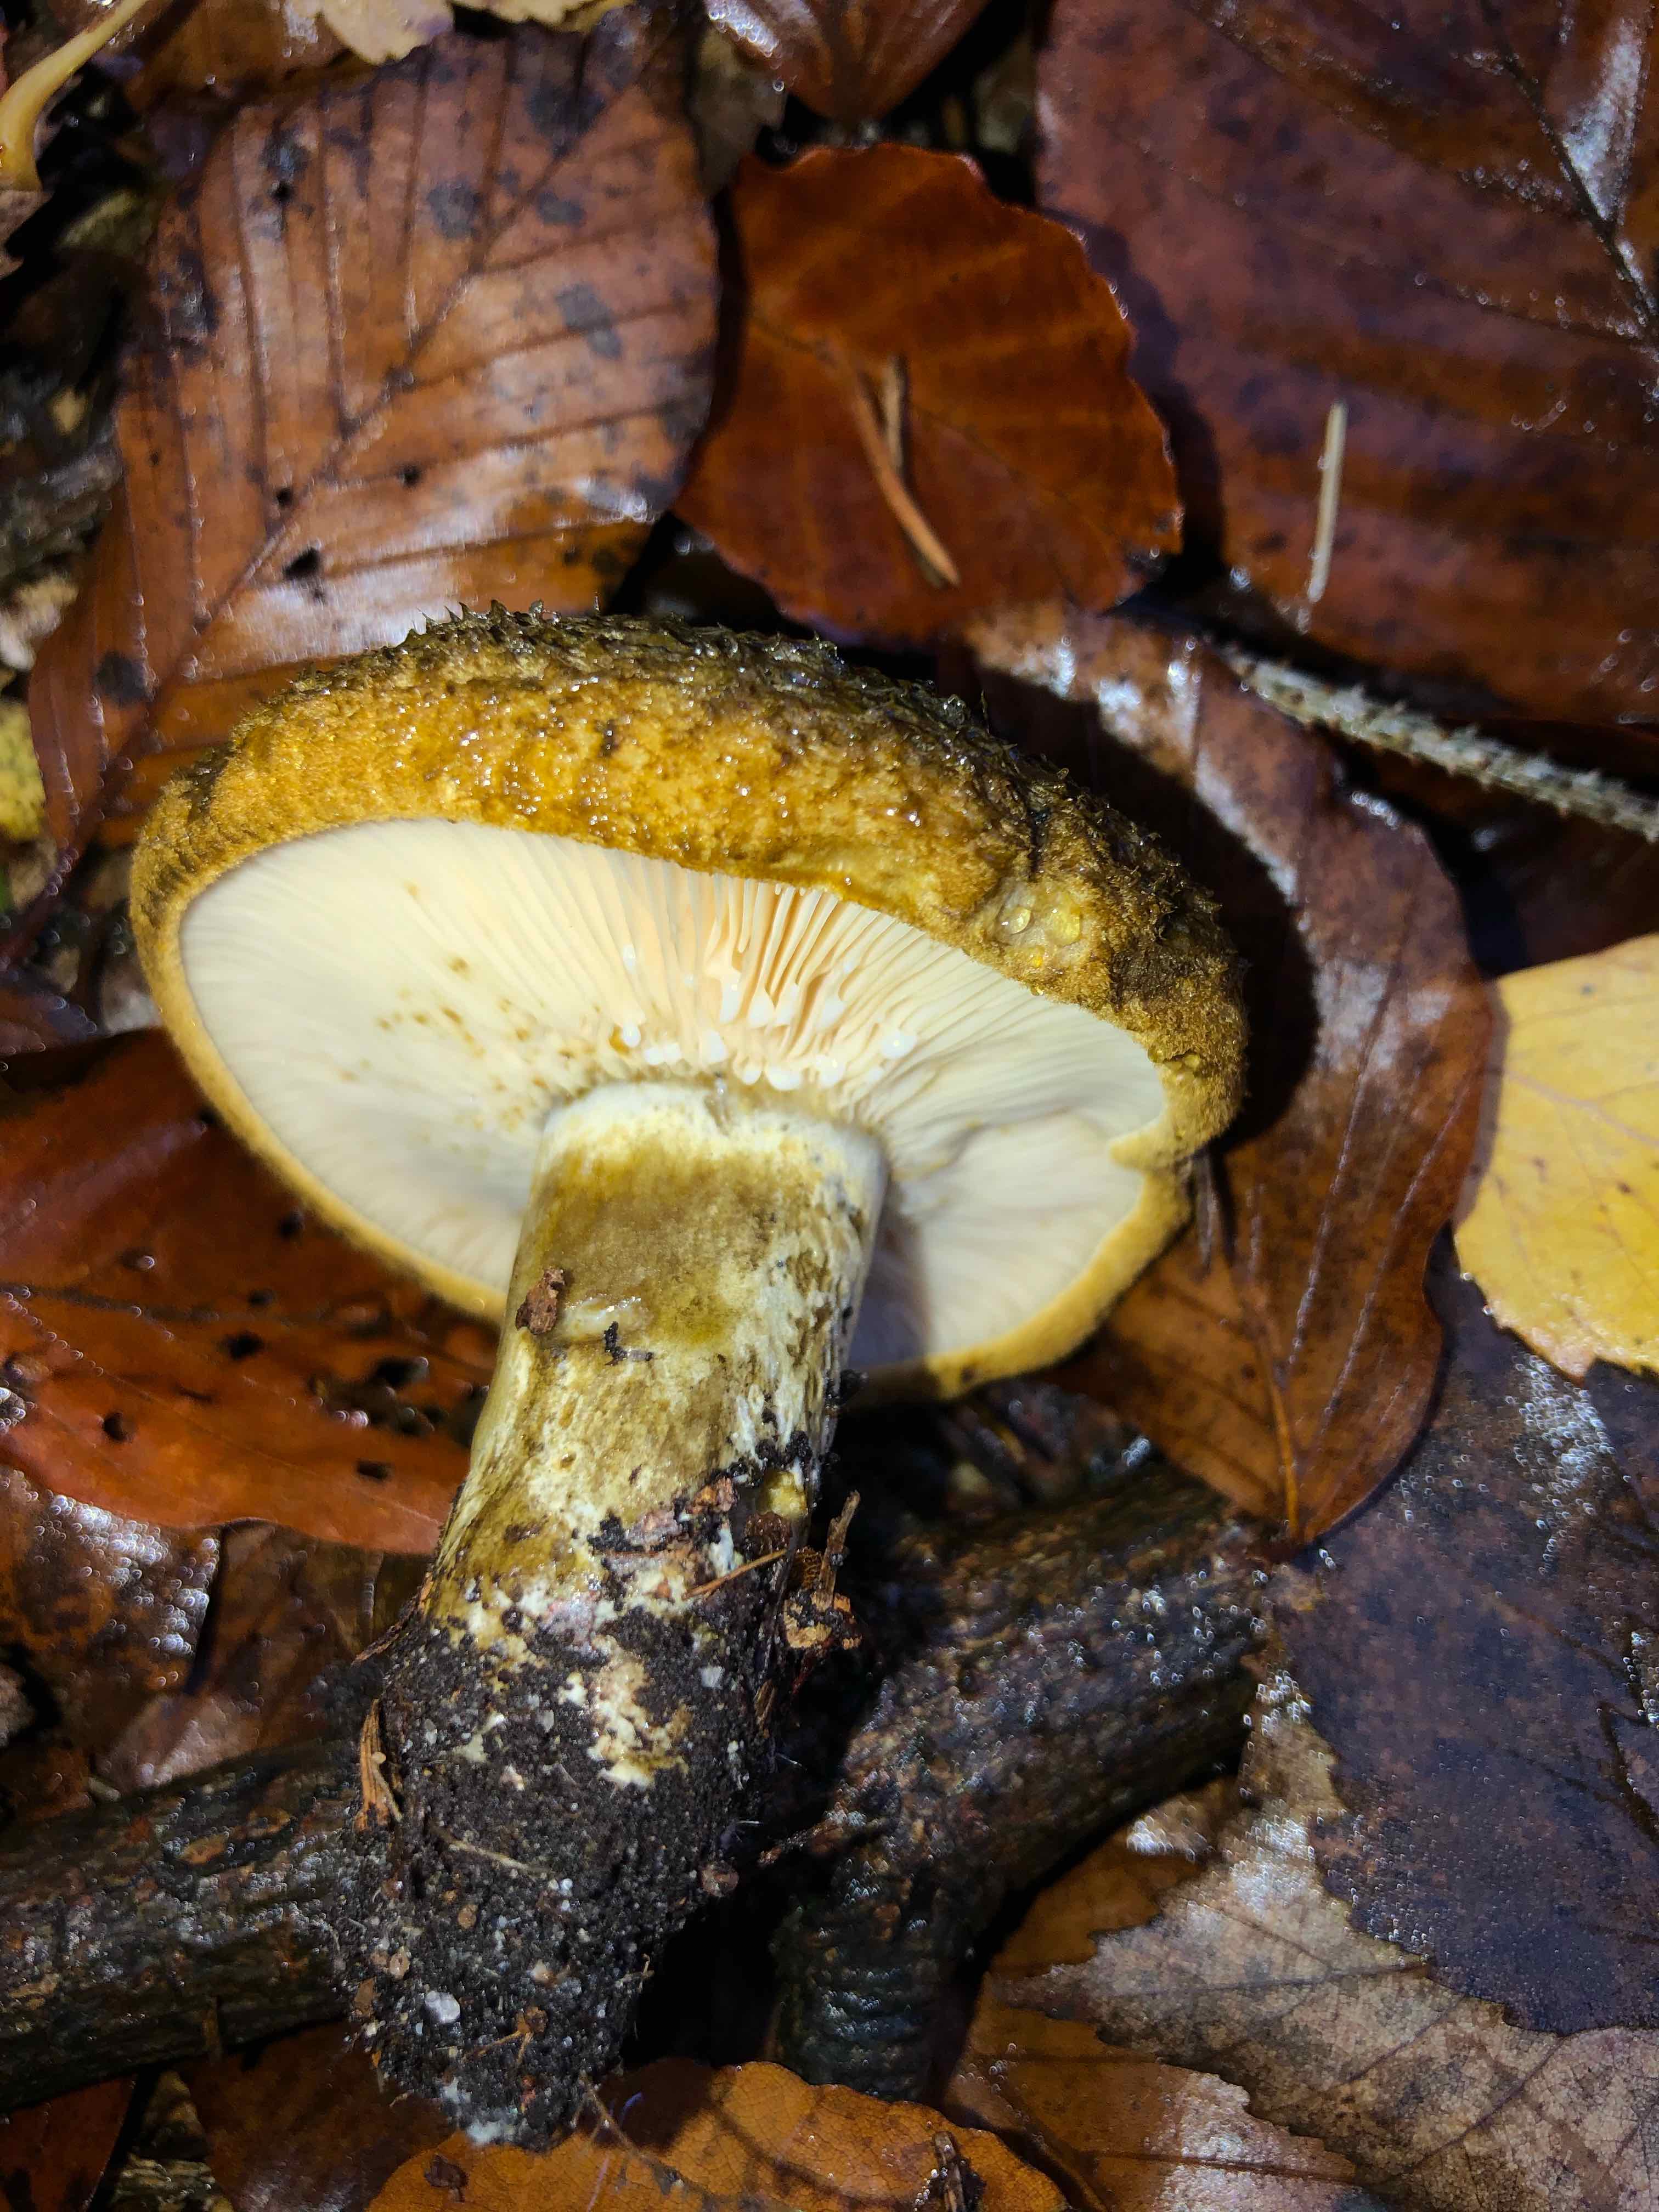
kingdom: Fungi
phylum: Basidiomycota
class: Agaricomycetes
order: Russulales
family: Russulaceae
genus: Lactarius
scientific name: Lactarius necator
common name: manddraber-mælkehat
